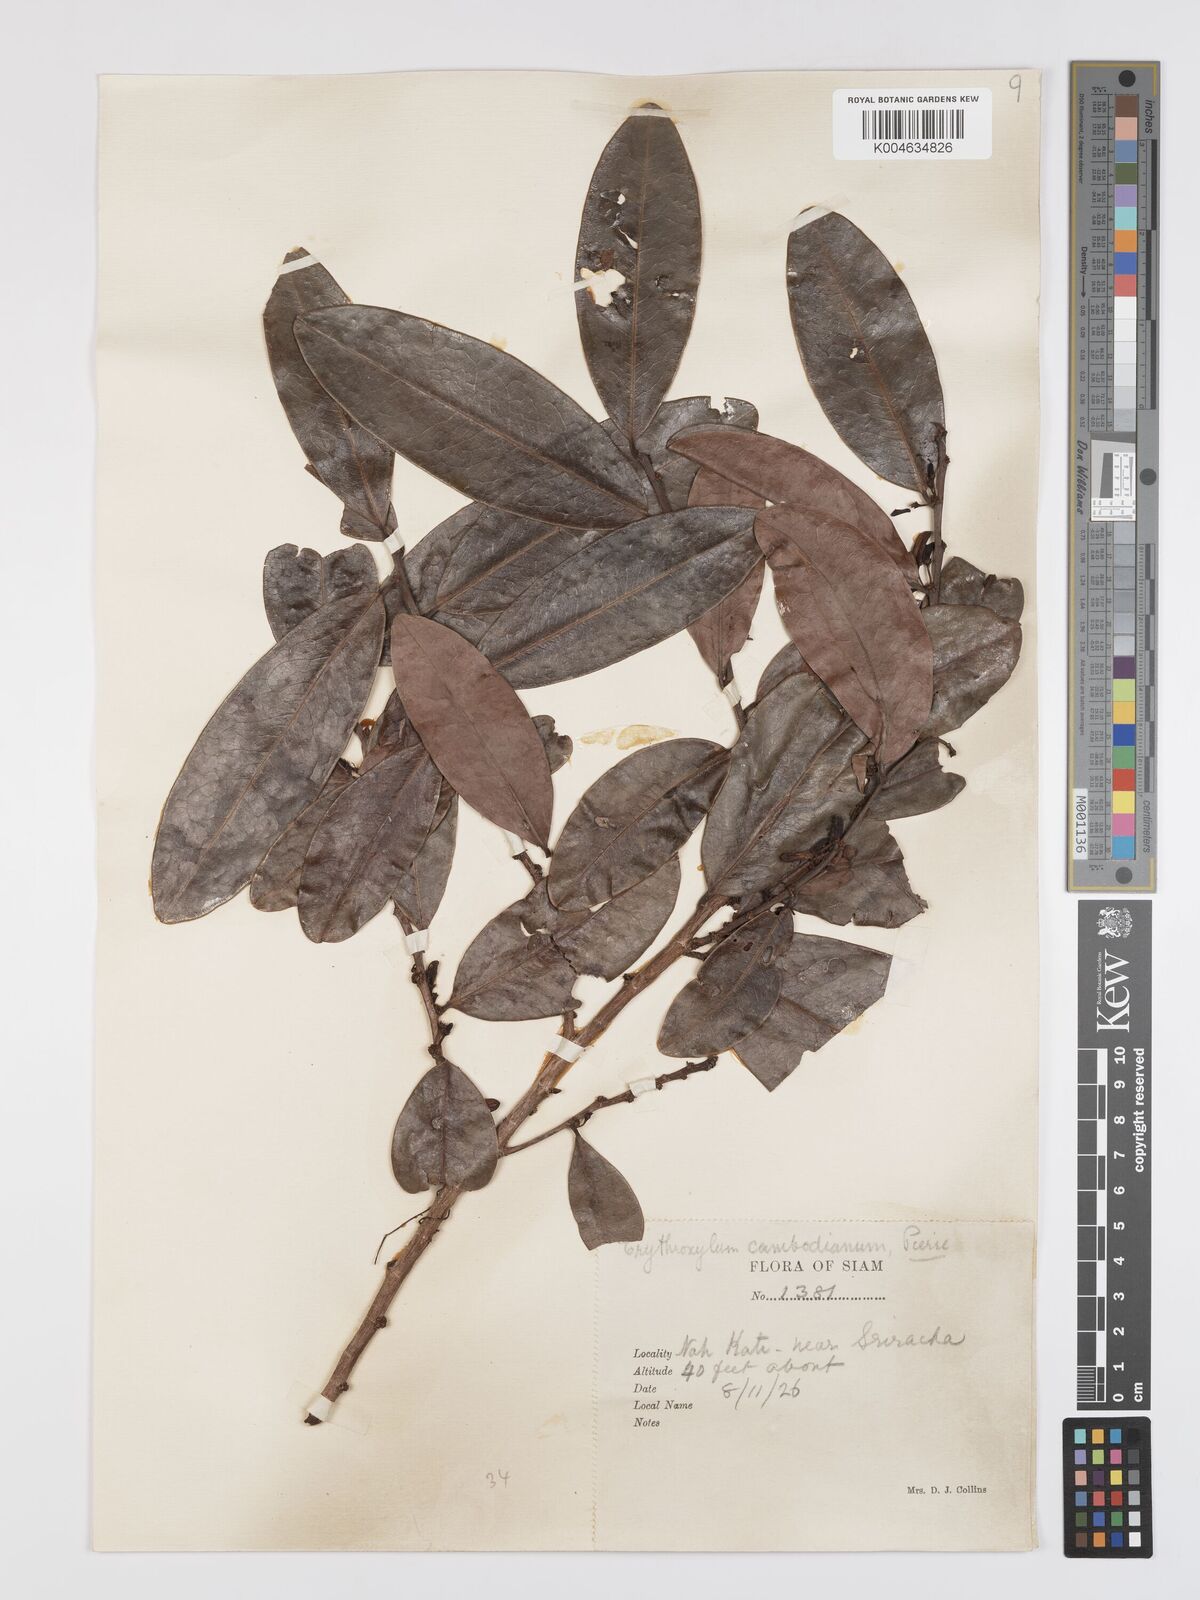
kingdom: Plantae
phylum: Tracheophyta
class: Magnoliopsida
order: Malpighiales
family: Erythroxylaceae
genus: Erythroxylum
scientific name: Erythroxylum cambodianum
